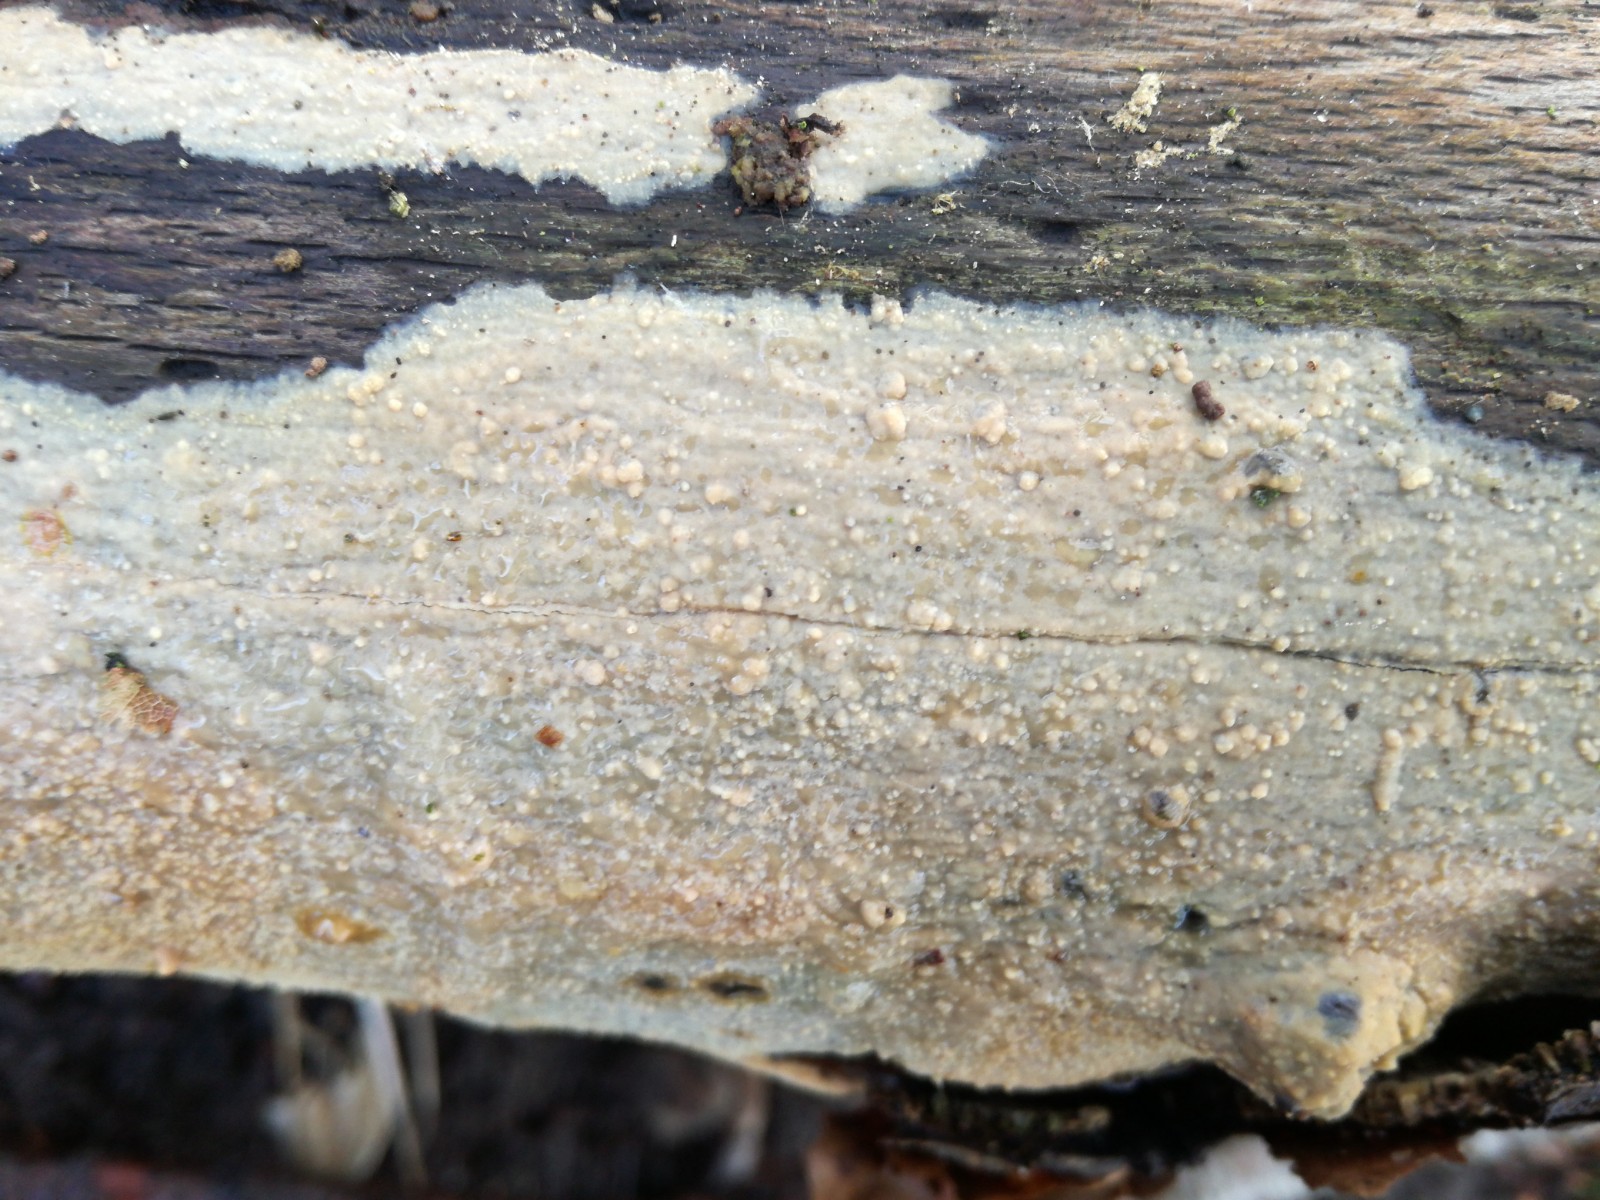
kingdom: Fungi
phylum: Basidiomycota
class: Agaricomycetes
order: Polyporales
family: Meruliaceae
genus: Cytidiella
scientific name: Cytidiella albida
